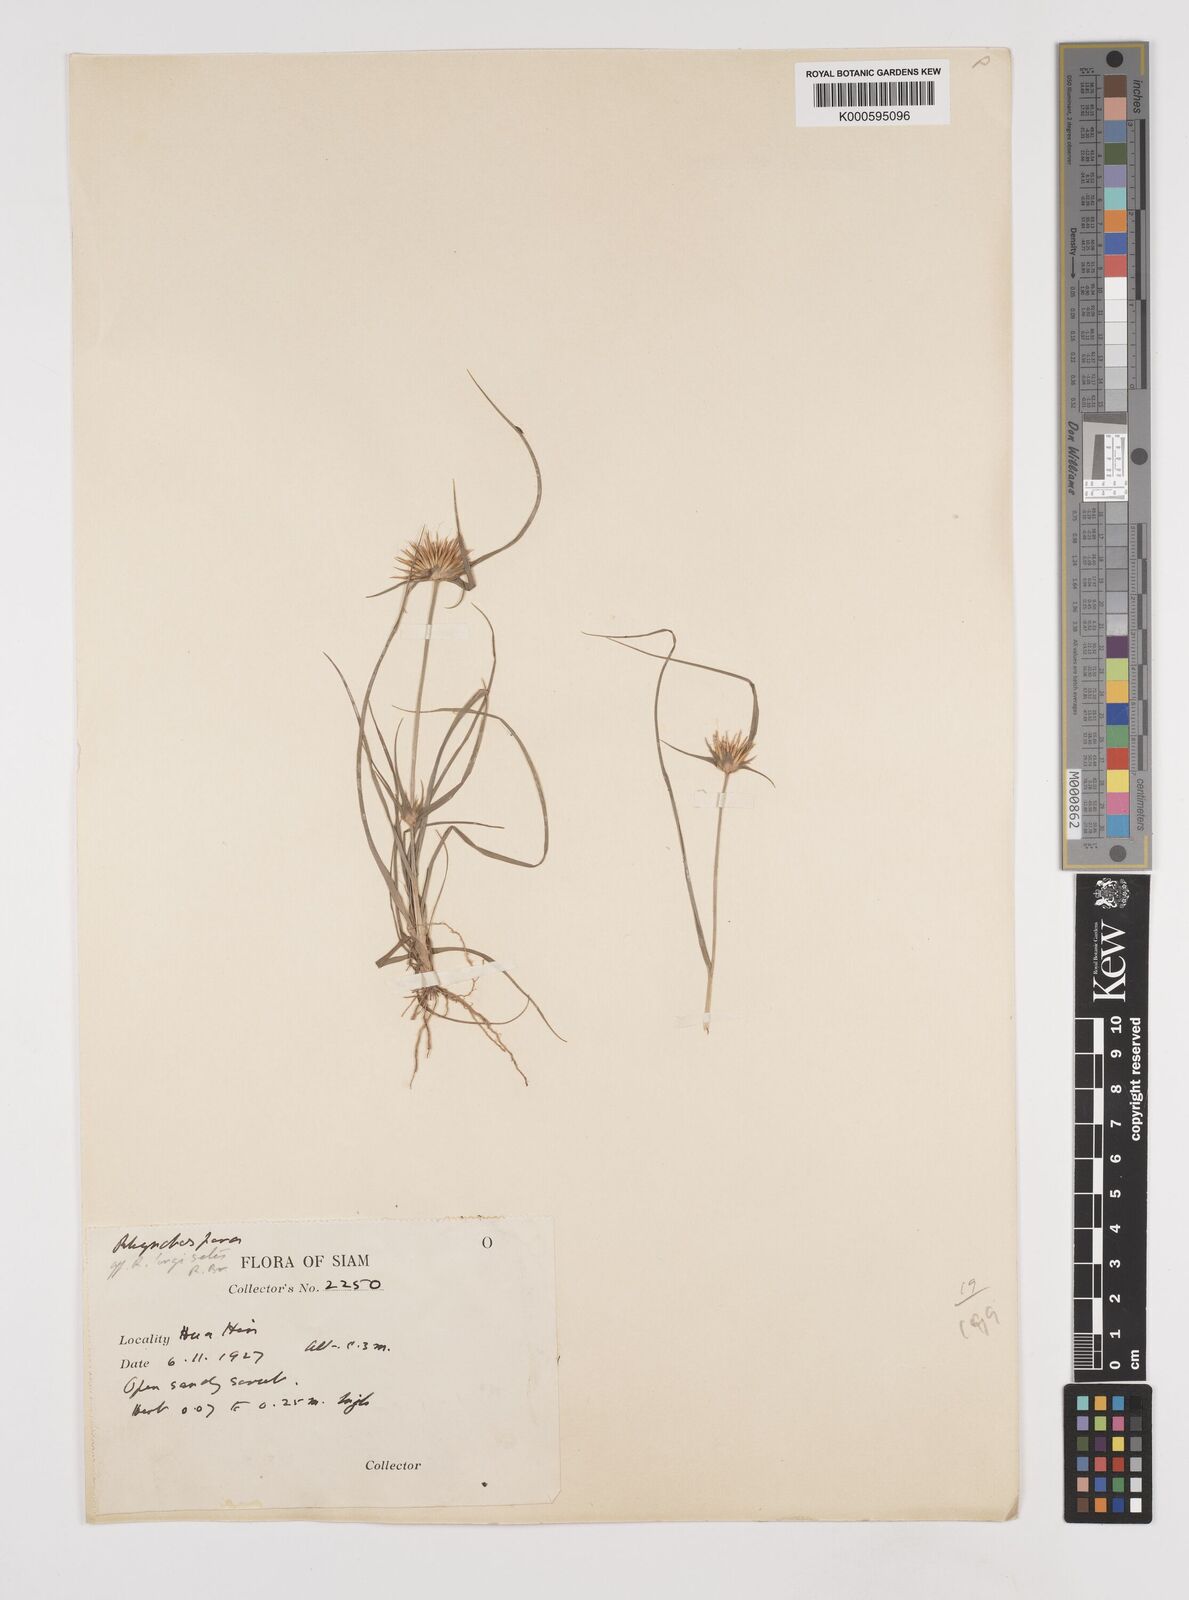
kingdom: Plantae
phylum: Tracheophyta
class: Liliopsida
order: Poales
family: Cyperaceae
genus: Rhynchospora
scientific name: Rhynchospora longisetis
